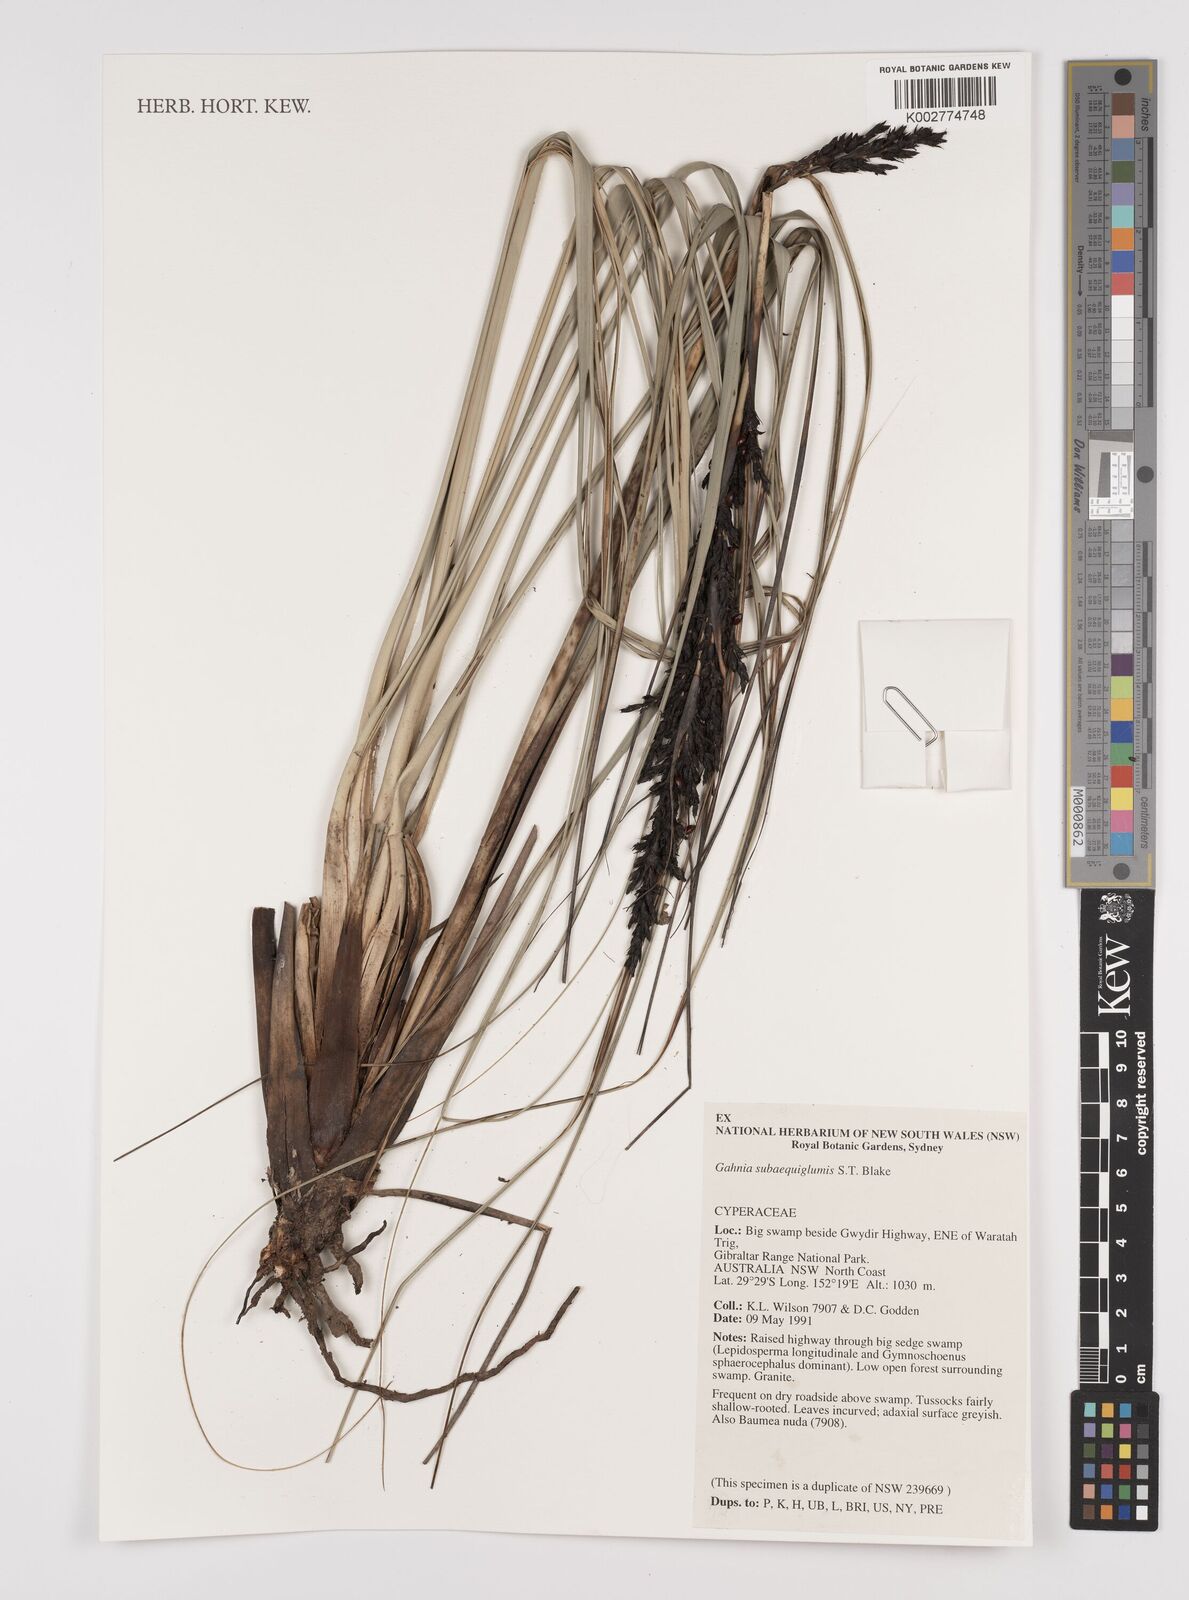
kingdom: Plantae
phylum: Tracheophyta
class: Liliopsida
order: Poales
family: Cyperaceae
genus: Gahnia
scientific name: Gahnia subaequiglumis
